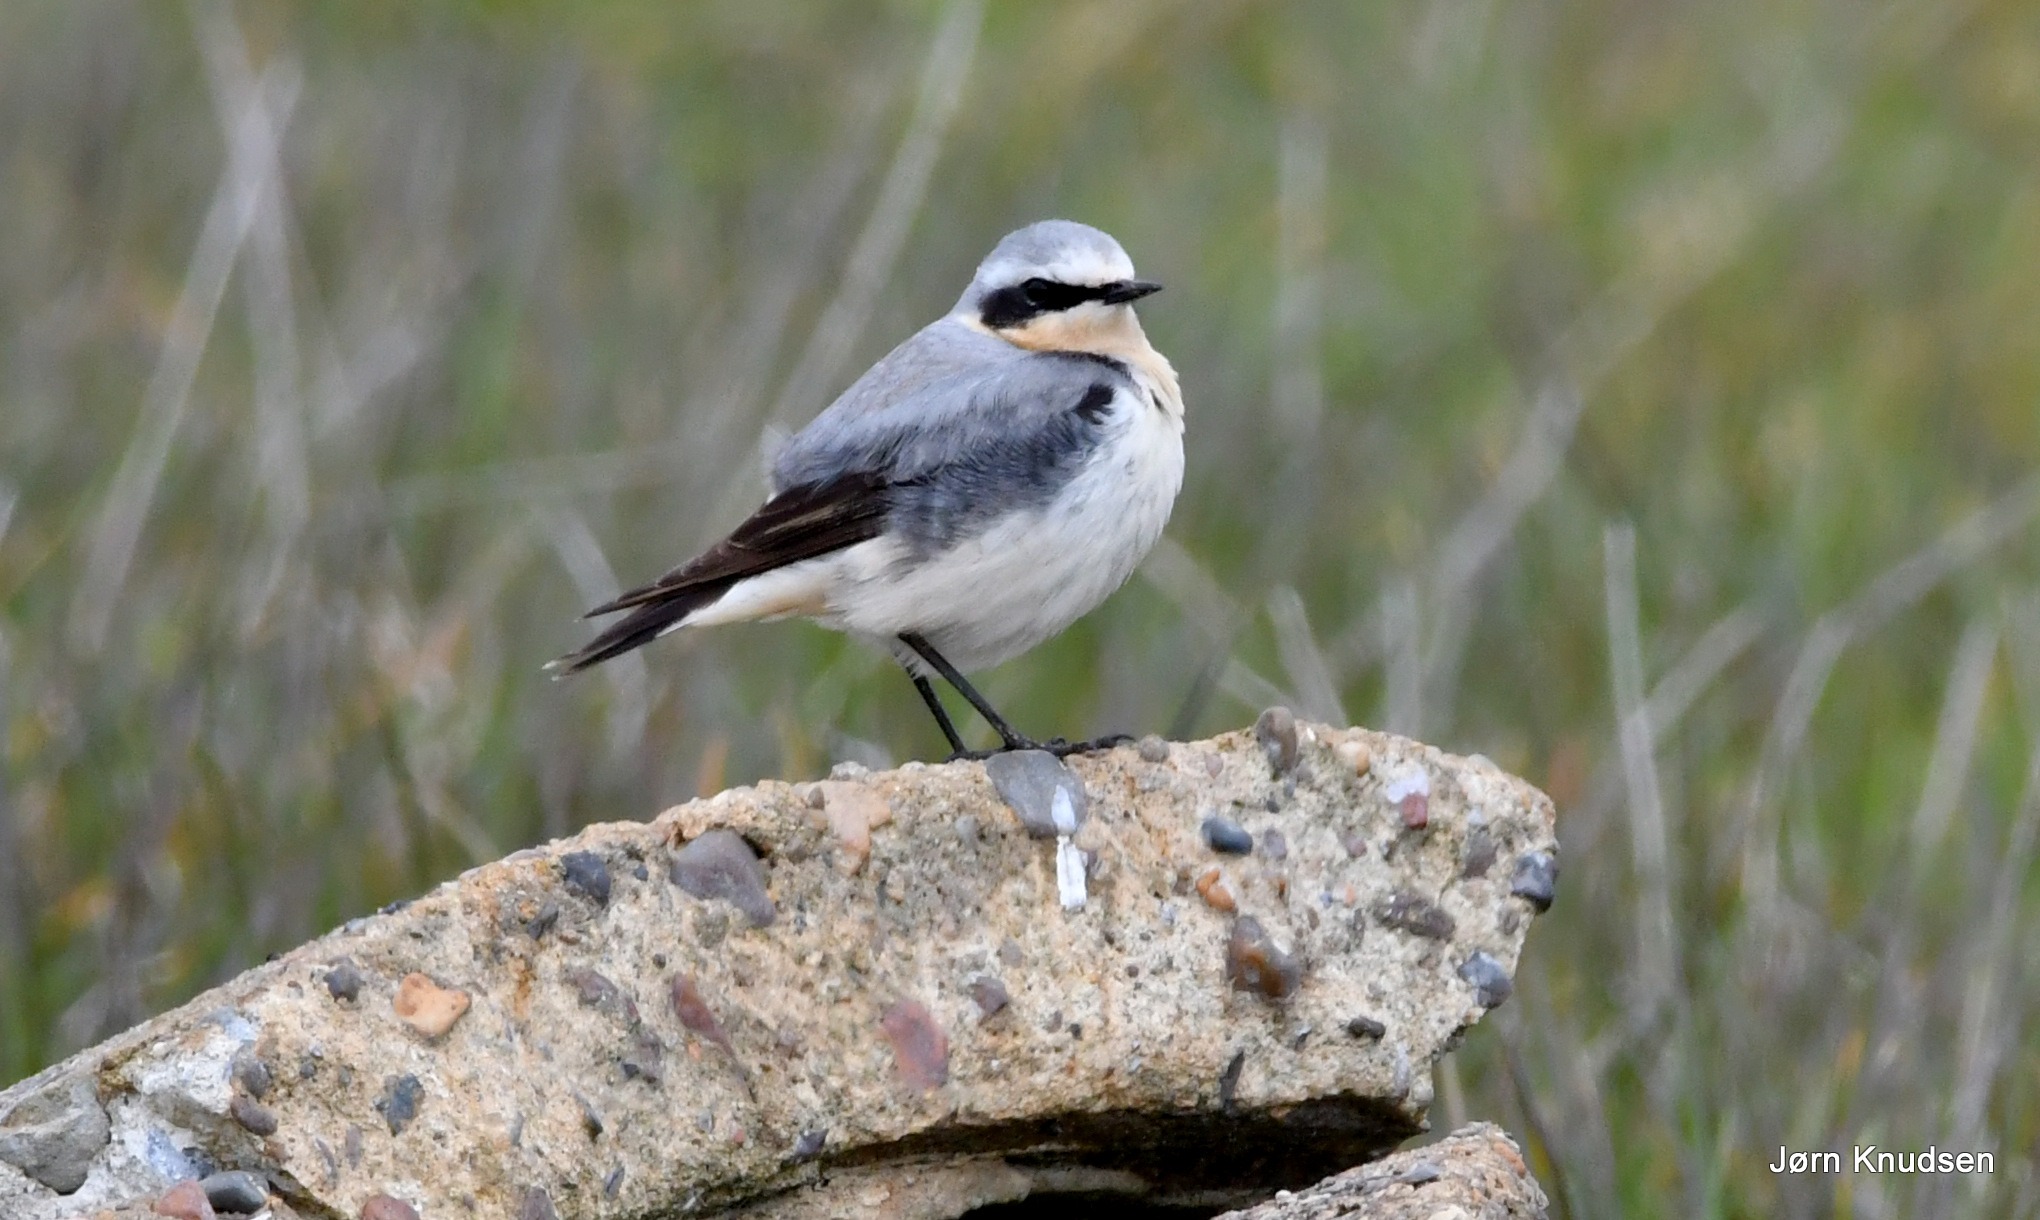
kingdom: Animalia
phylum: Chordata
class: Aves
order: Passeriformes
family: Muscicapidae
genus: Oenanthe
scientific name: Oenanthe oenanthe
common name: Stenpikker
